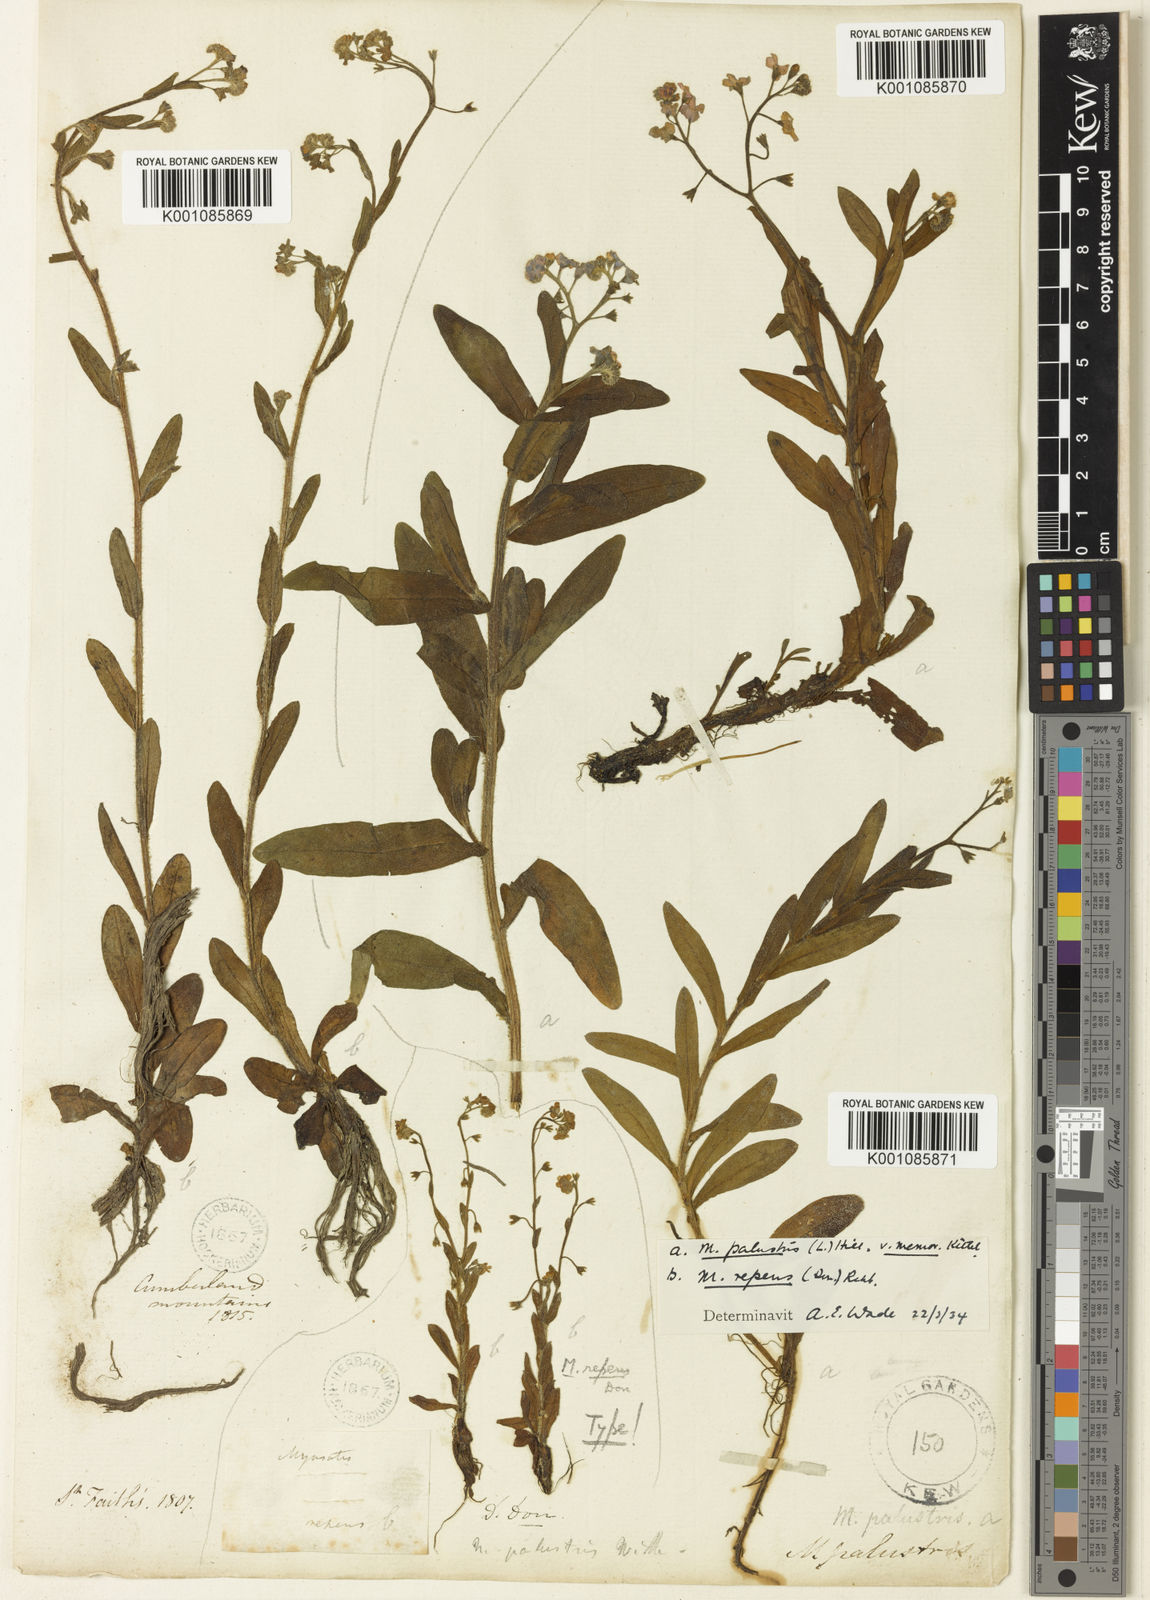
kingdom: Plantae
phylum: Tracheophyta
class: Magnoliopsida
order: Boraginales
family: Boraginaceae
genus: Myosotis
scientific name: Myosotis secunda
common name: Creeping forget-me-not
